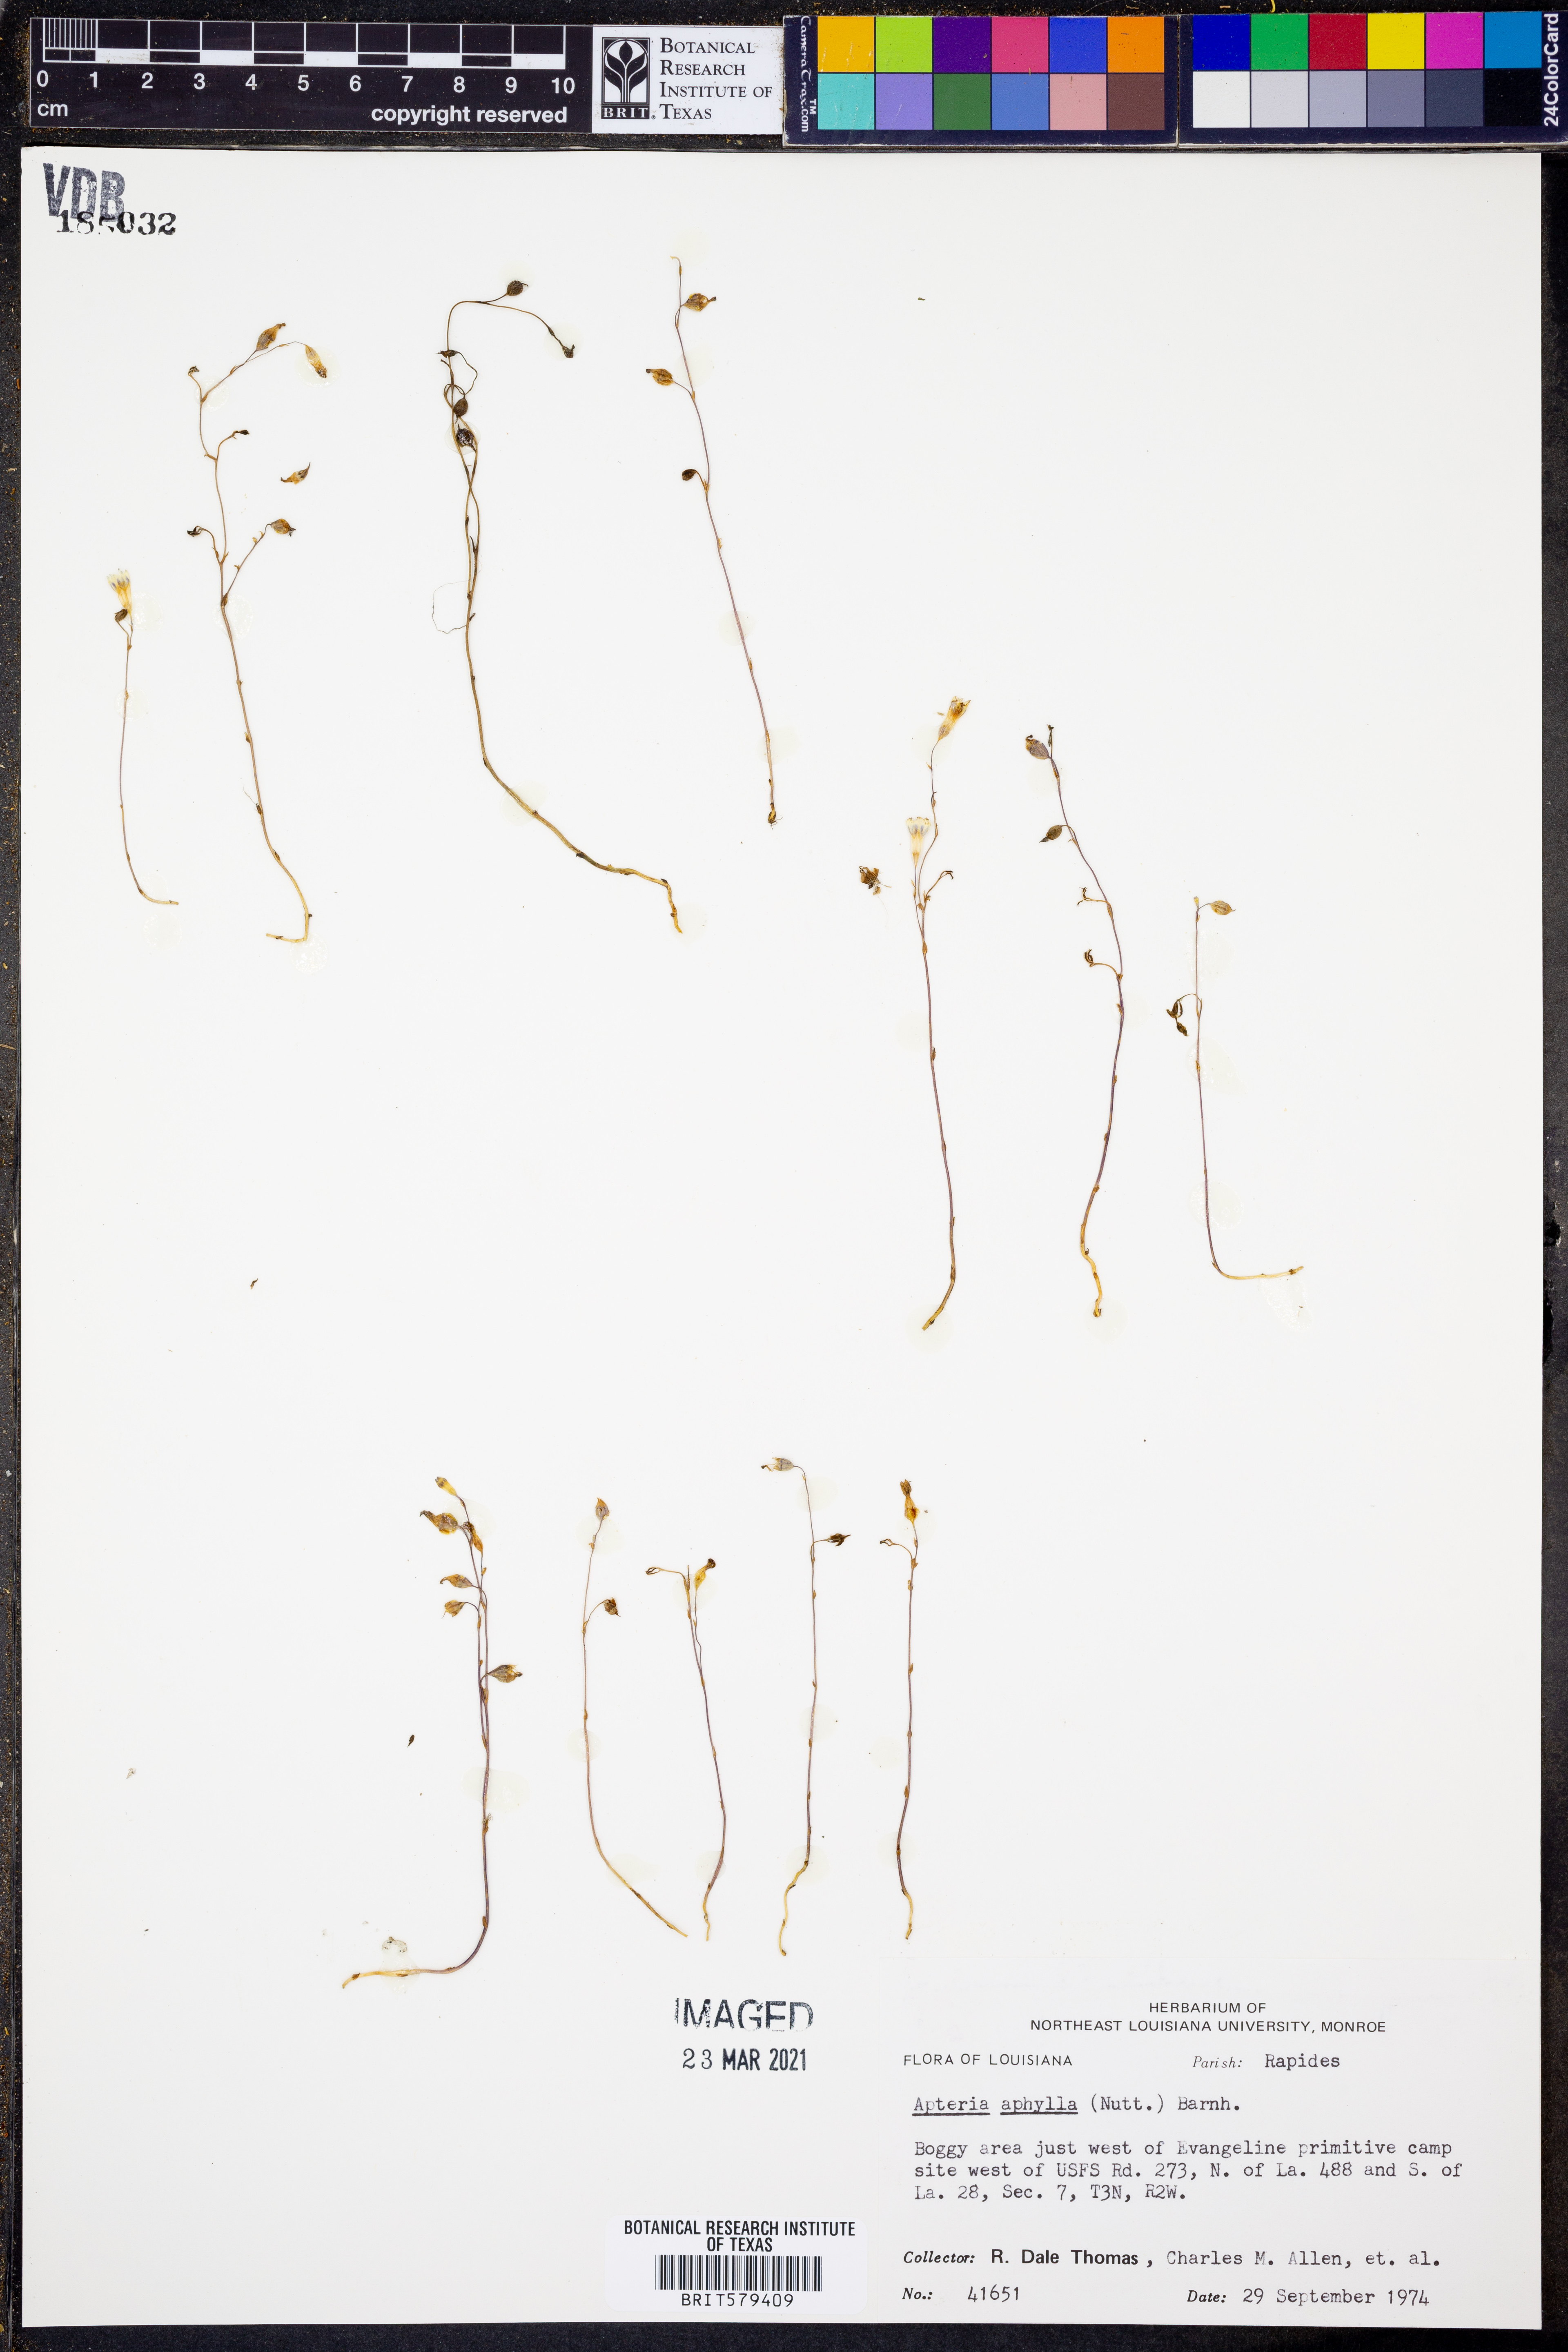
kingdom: Plantae
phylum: Tracheophyta
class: Liliopsida
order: Dioscoreales
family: Burmanniaceae
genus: Apteria
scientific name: Apteria aphylla
